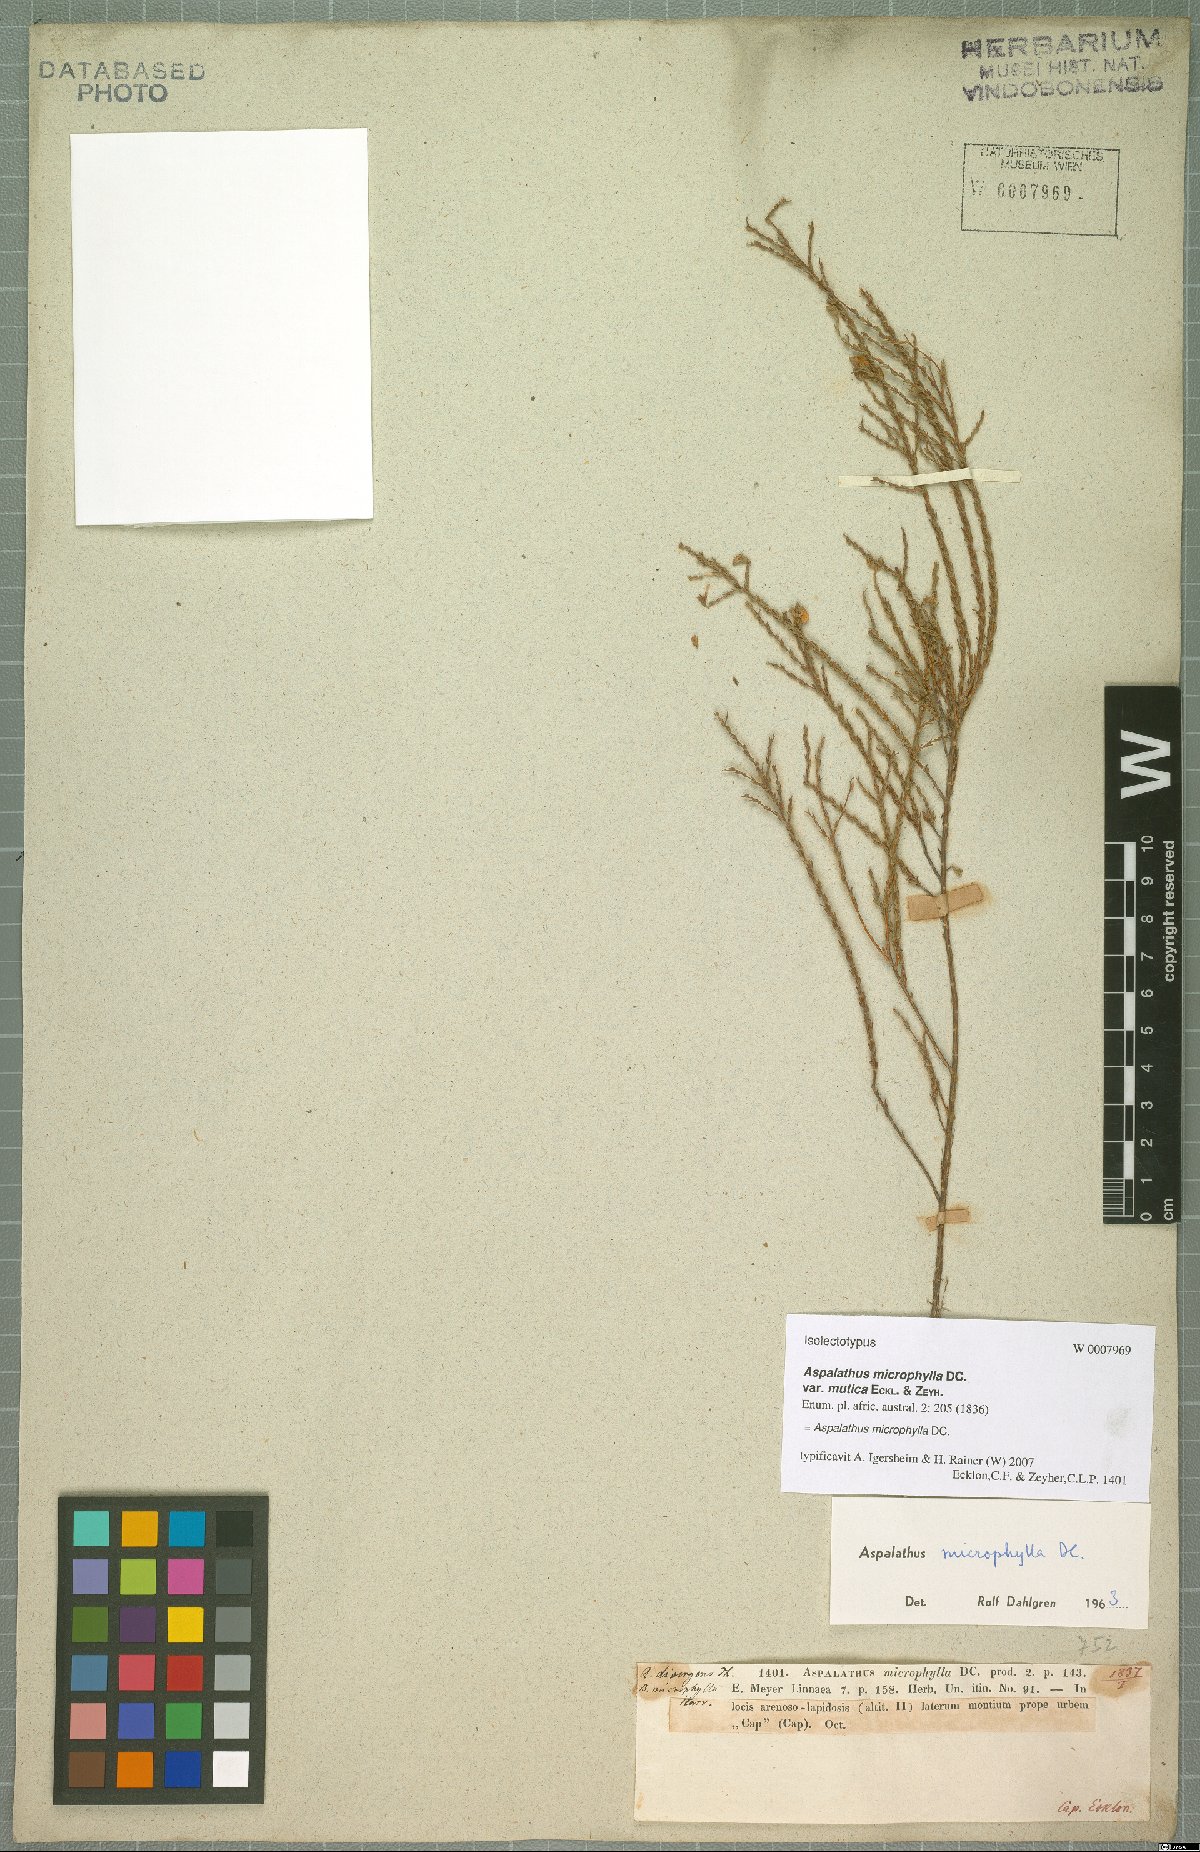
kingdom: Plantae
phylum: Tracheophyta
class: Magnoliopsida
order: Fabales
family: Fabaceae
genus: Aspalathus
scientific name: Aspalathus microphylla
